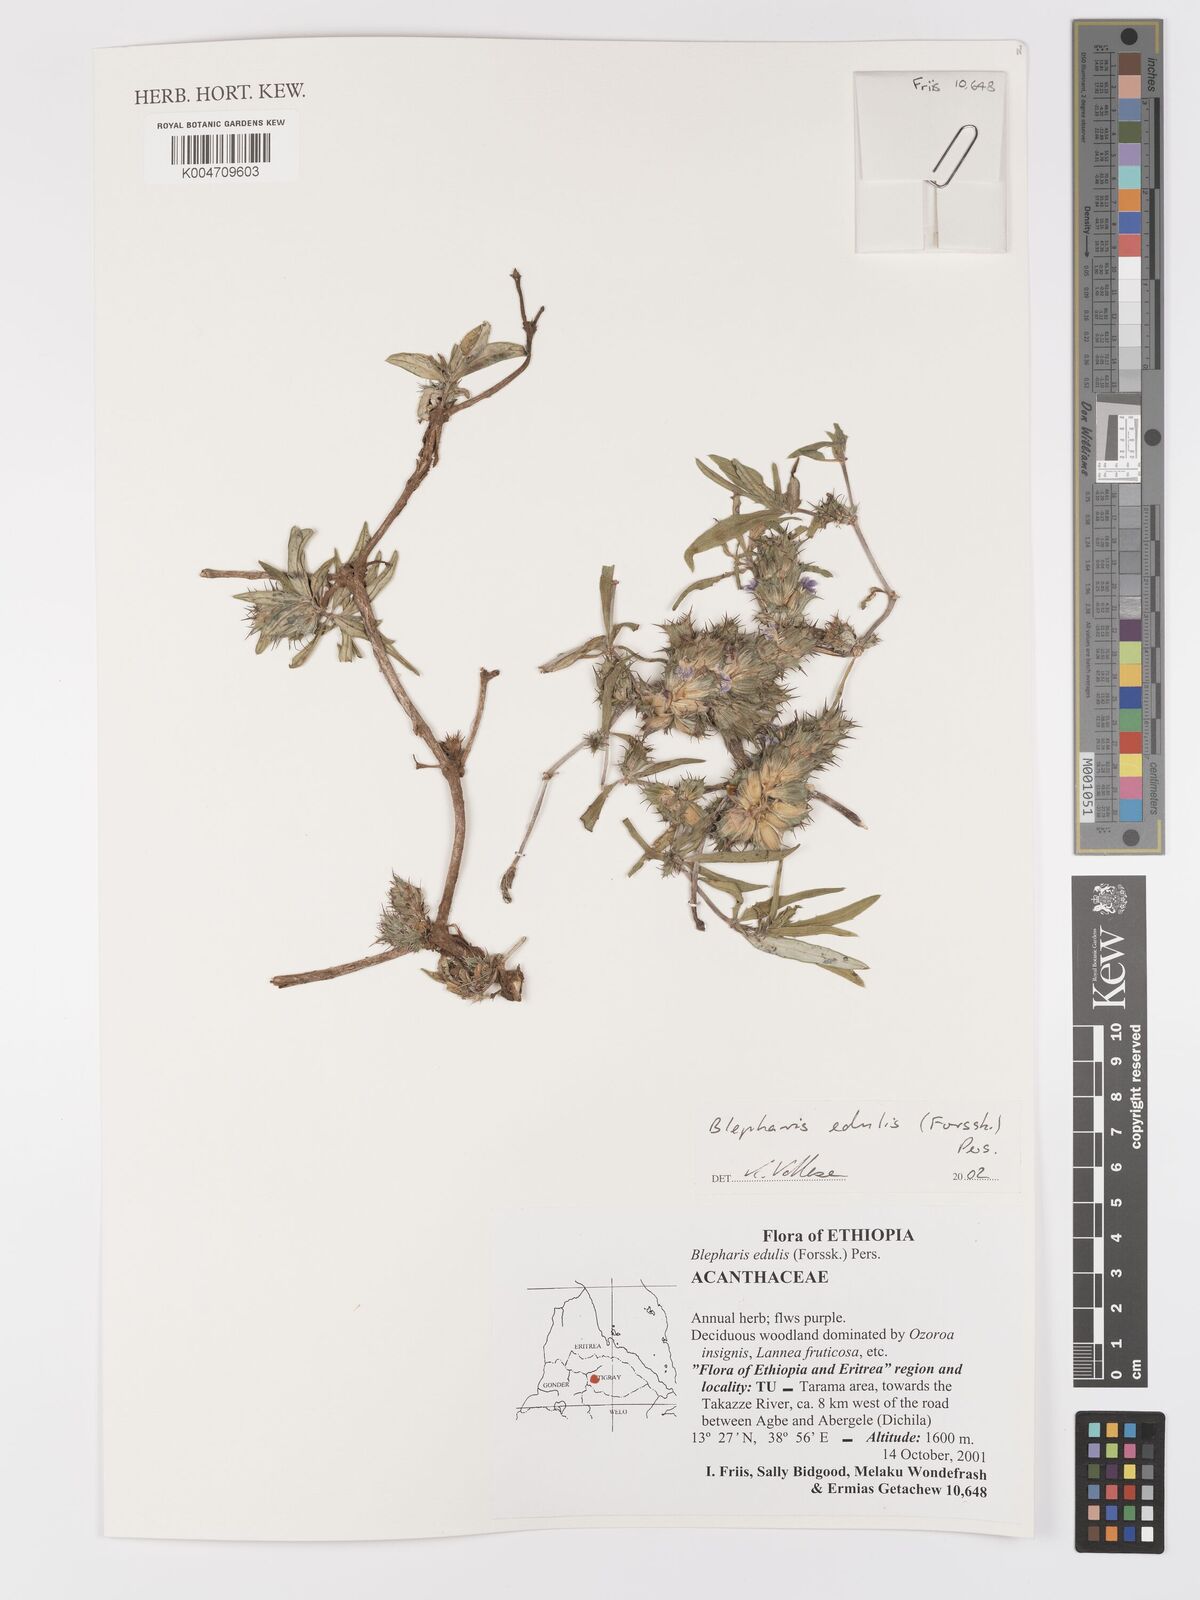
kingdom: Plantae
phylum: Tracheophyta
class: Magnoliopsida
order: Lamiales
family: Acanthaceae
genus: Blepharis
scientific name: Blepharis edulis
